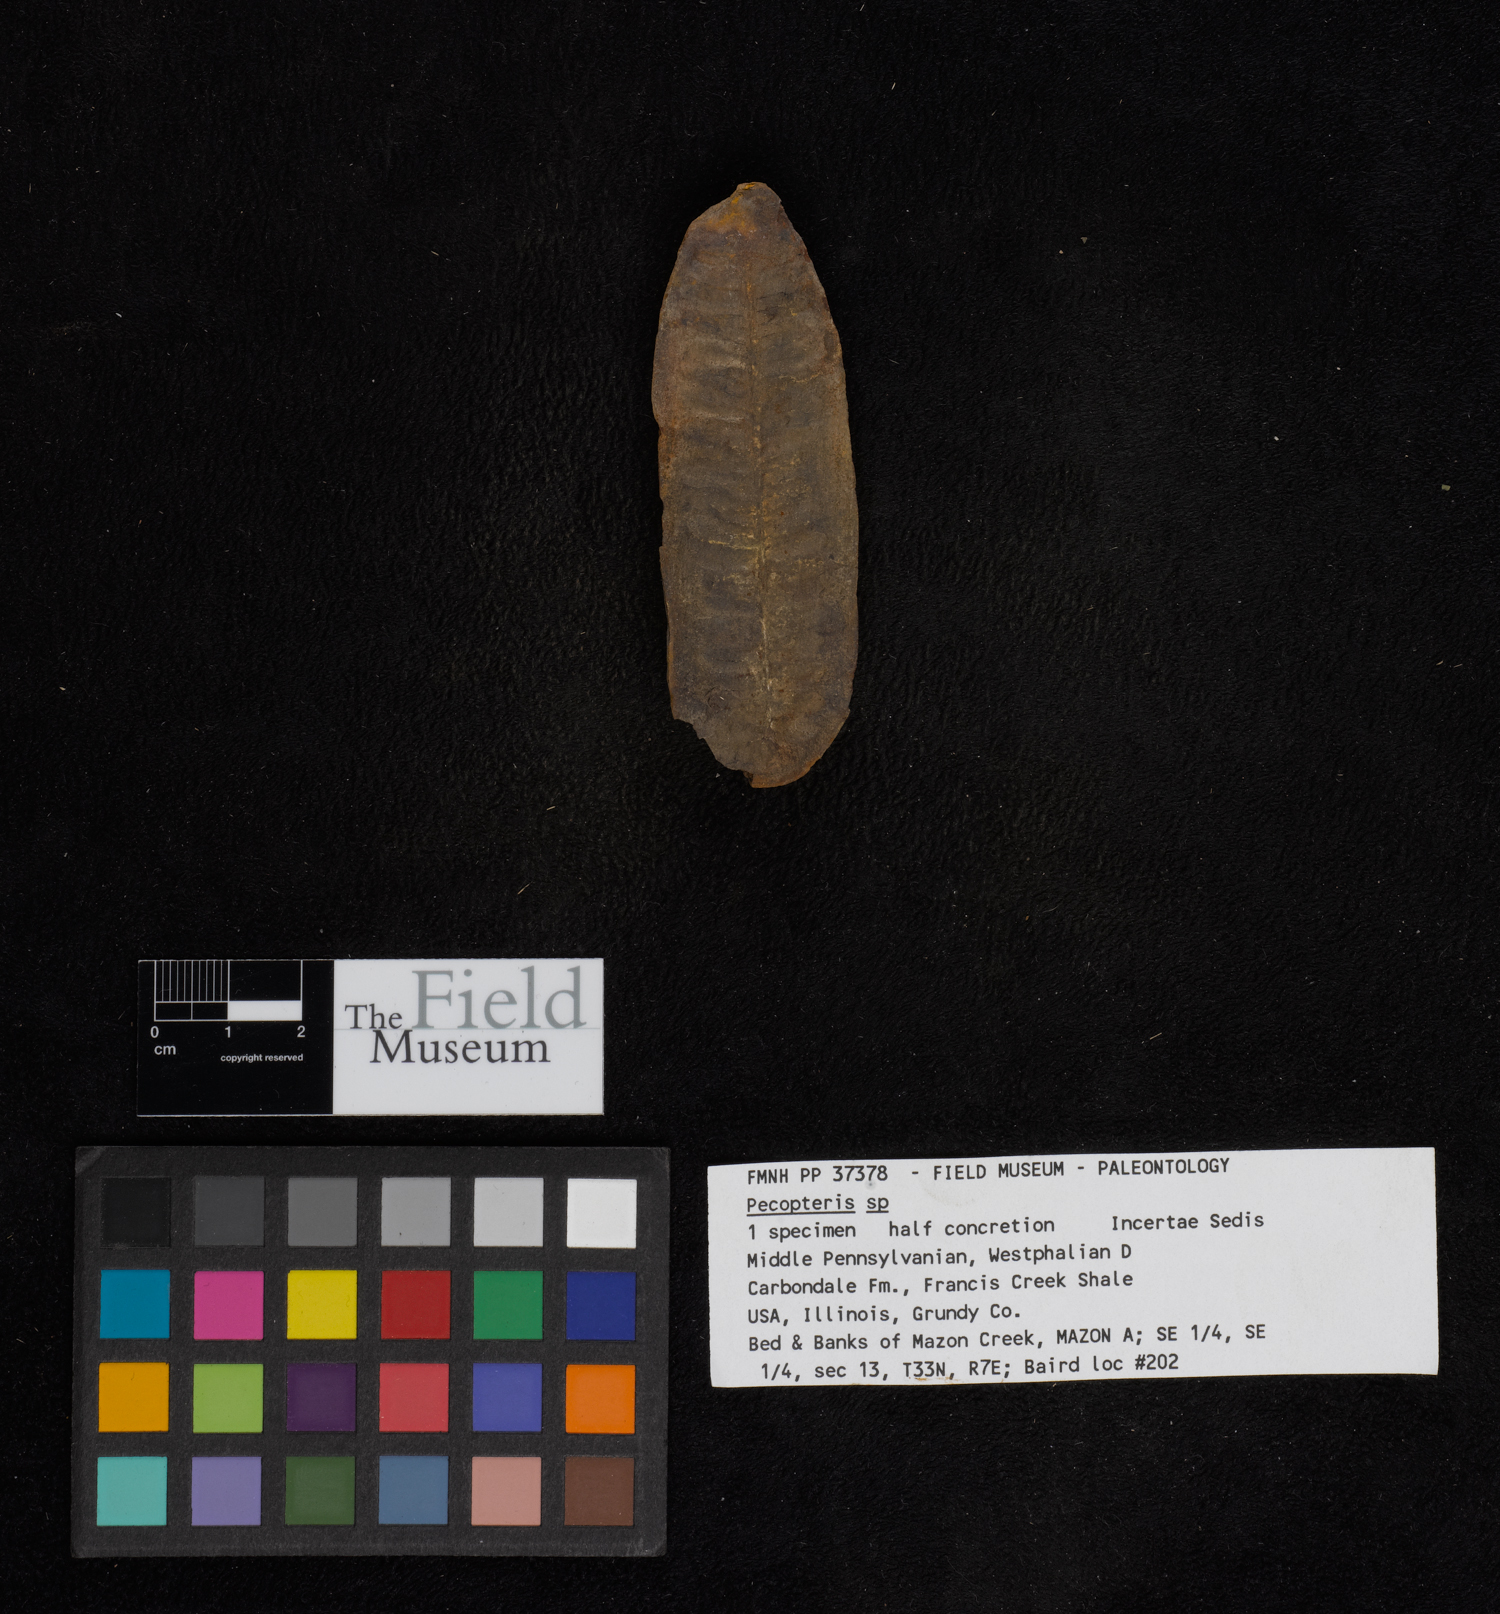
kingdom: Plantae
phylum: Tracheophyta
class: Polypodiopsida
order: Marattiales
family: Asterothecaceae
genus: Pecopteris
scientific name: Pecopteris
